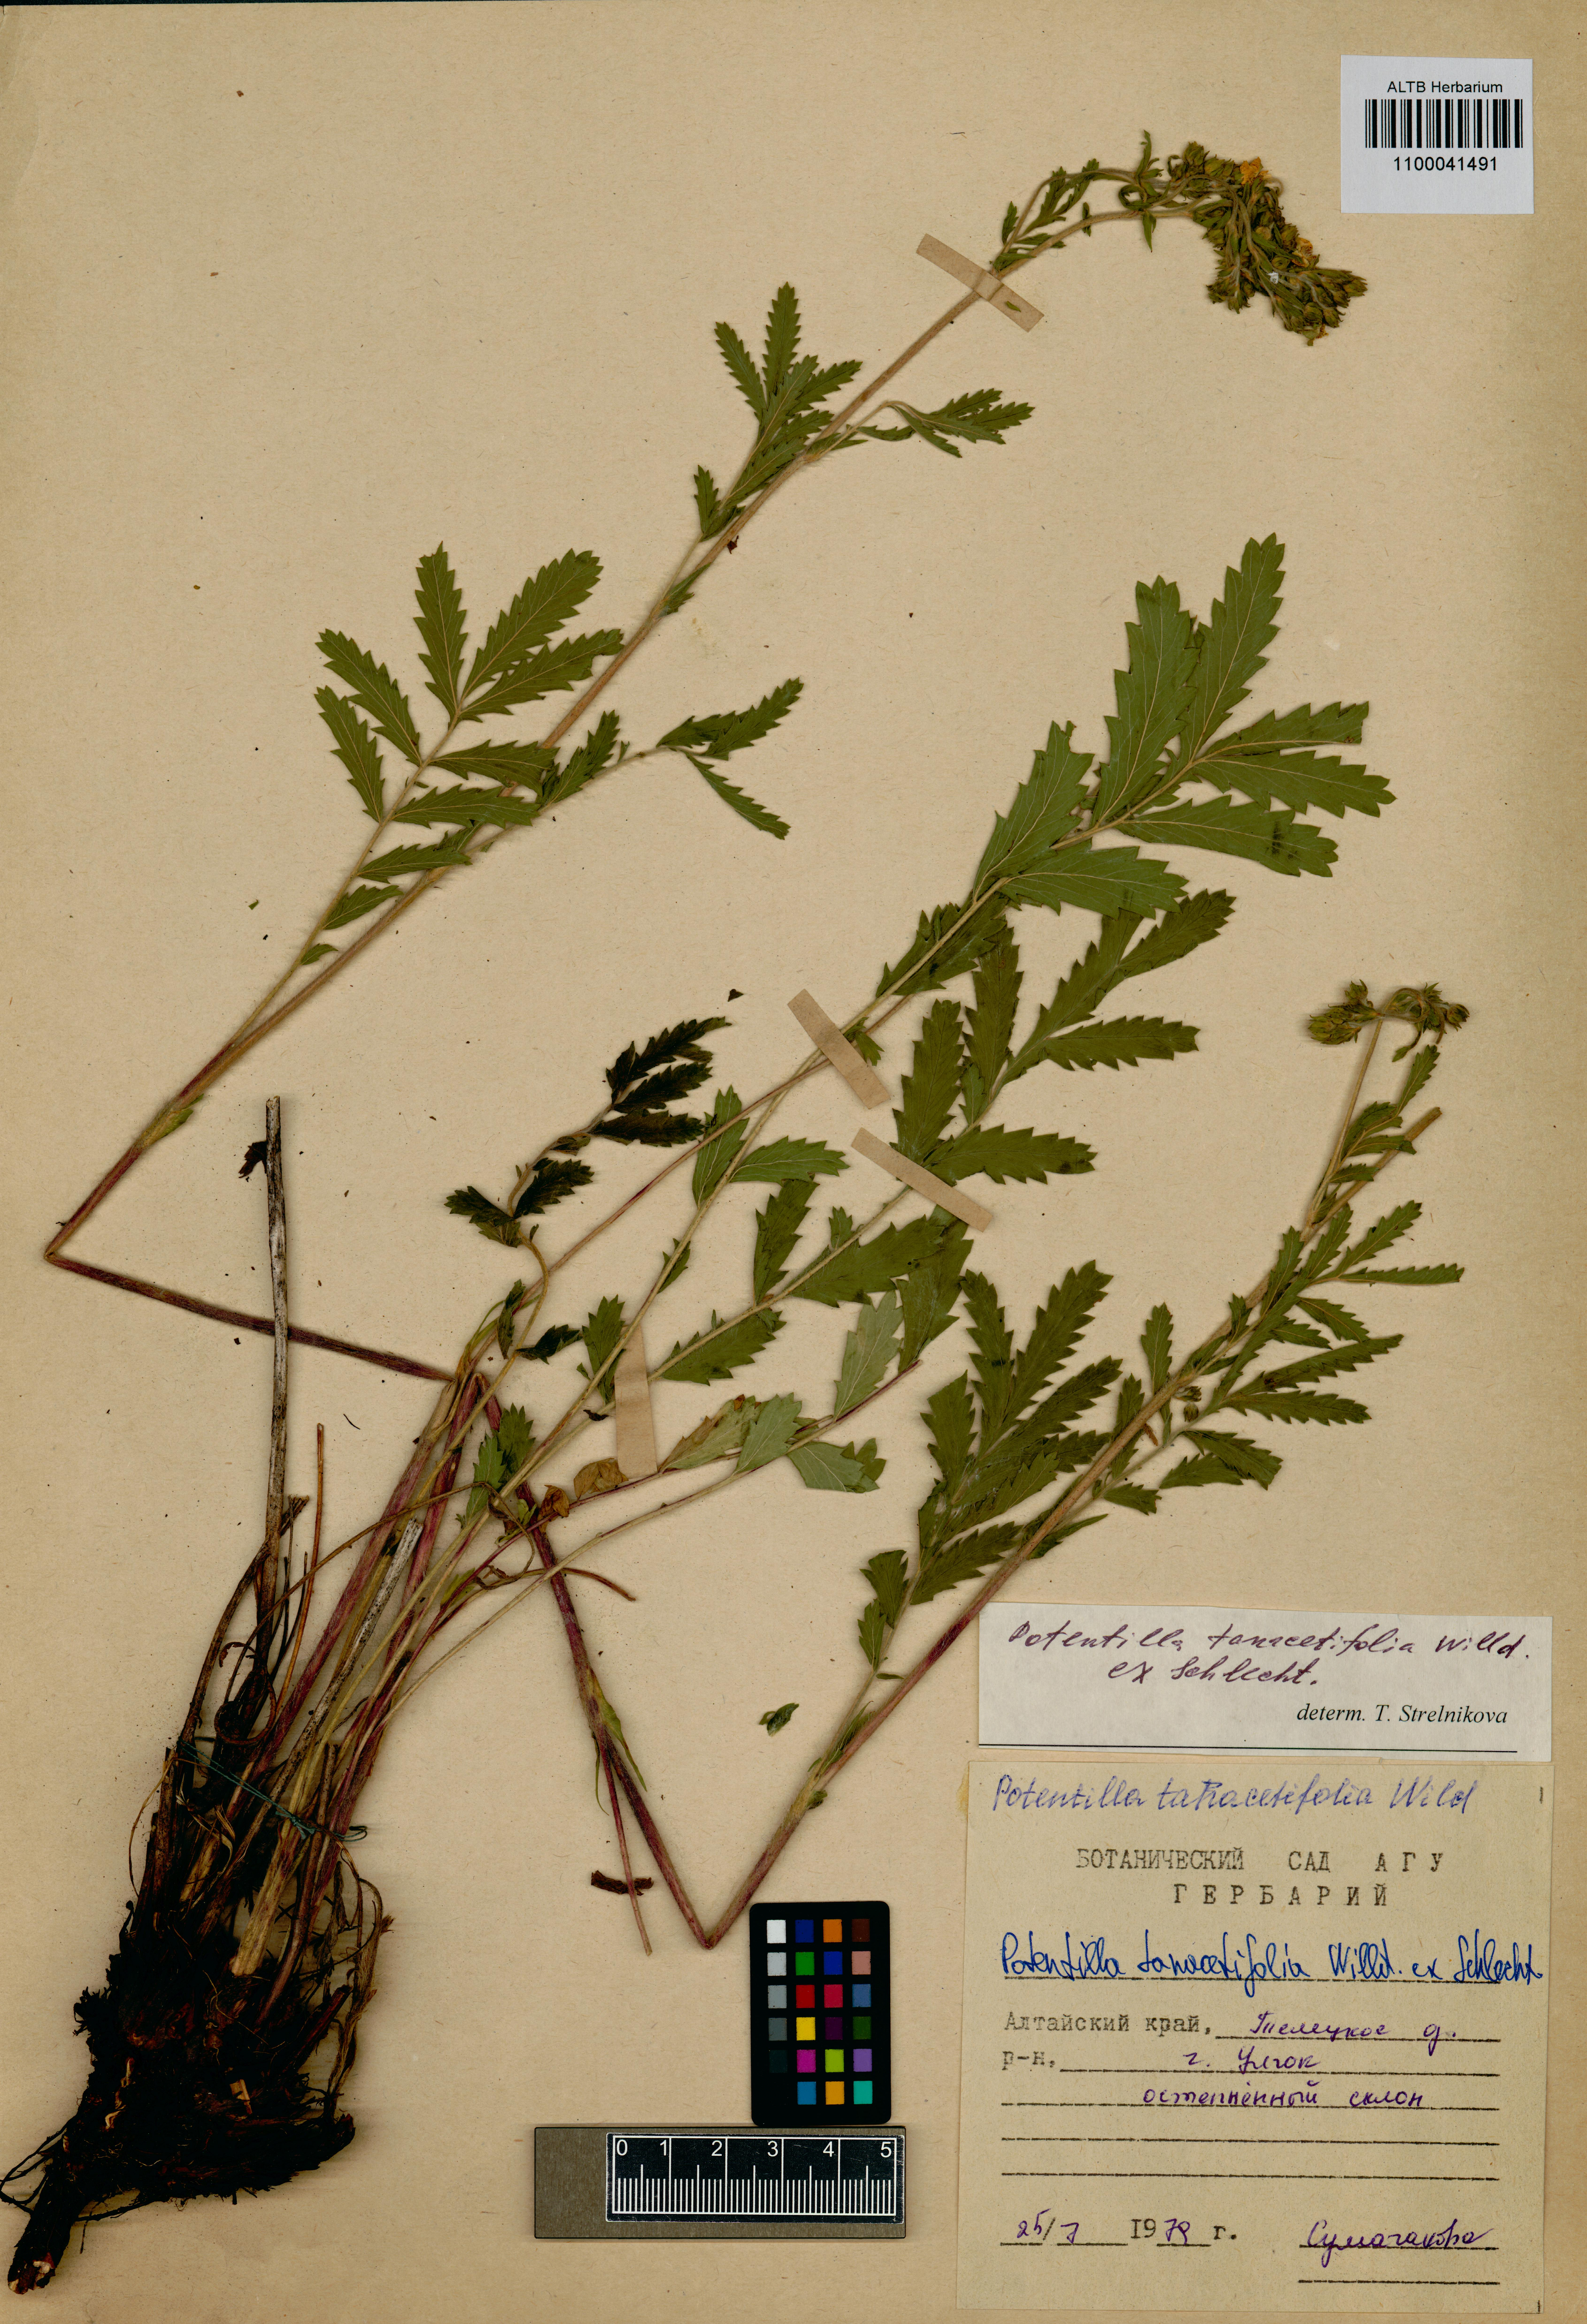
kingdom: Plantae
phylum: Tracheophyta
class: Magnoliopsida
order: Rosales
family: Rosaceae
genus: Potentilla
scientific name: Potentilla tanacetifolia
